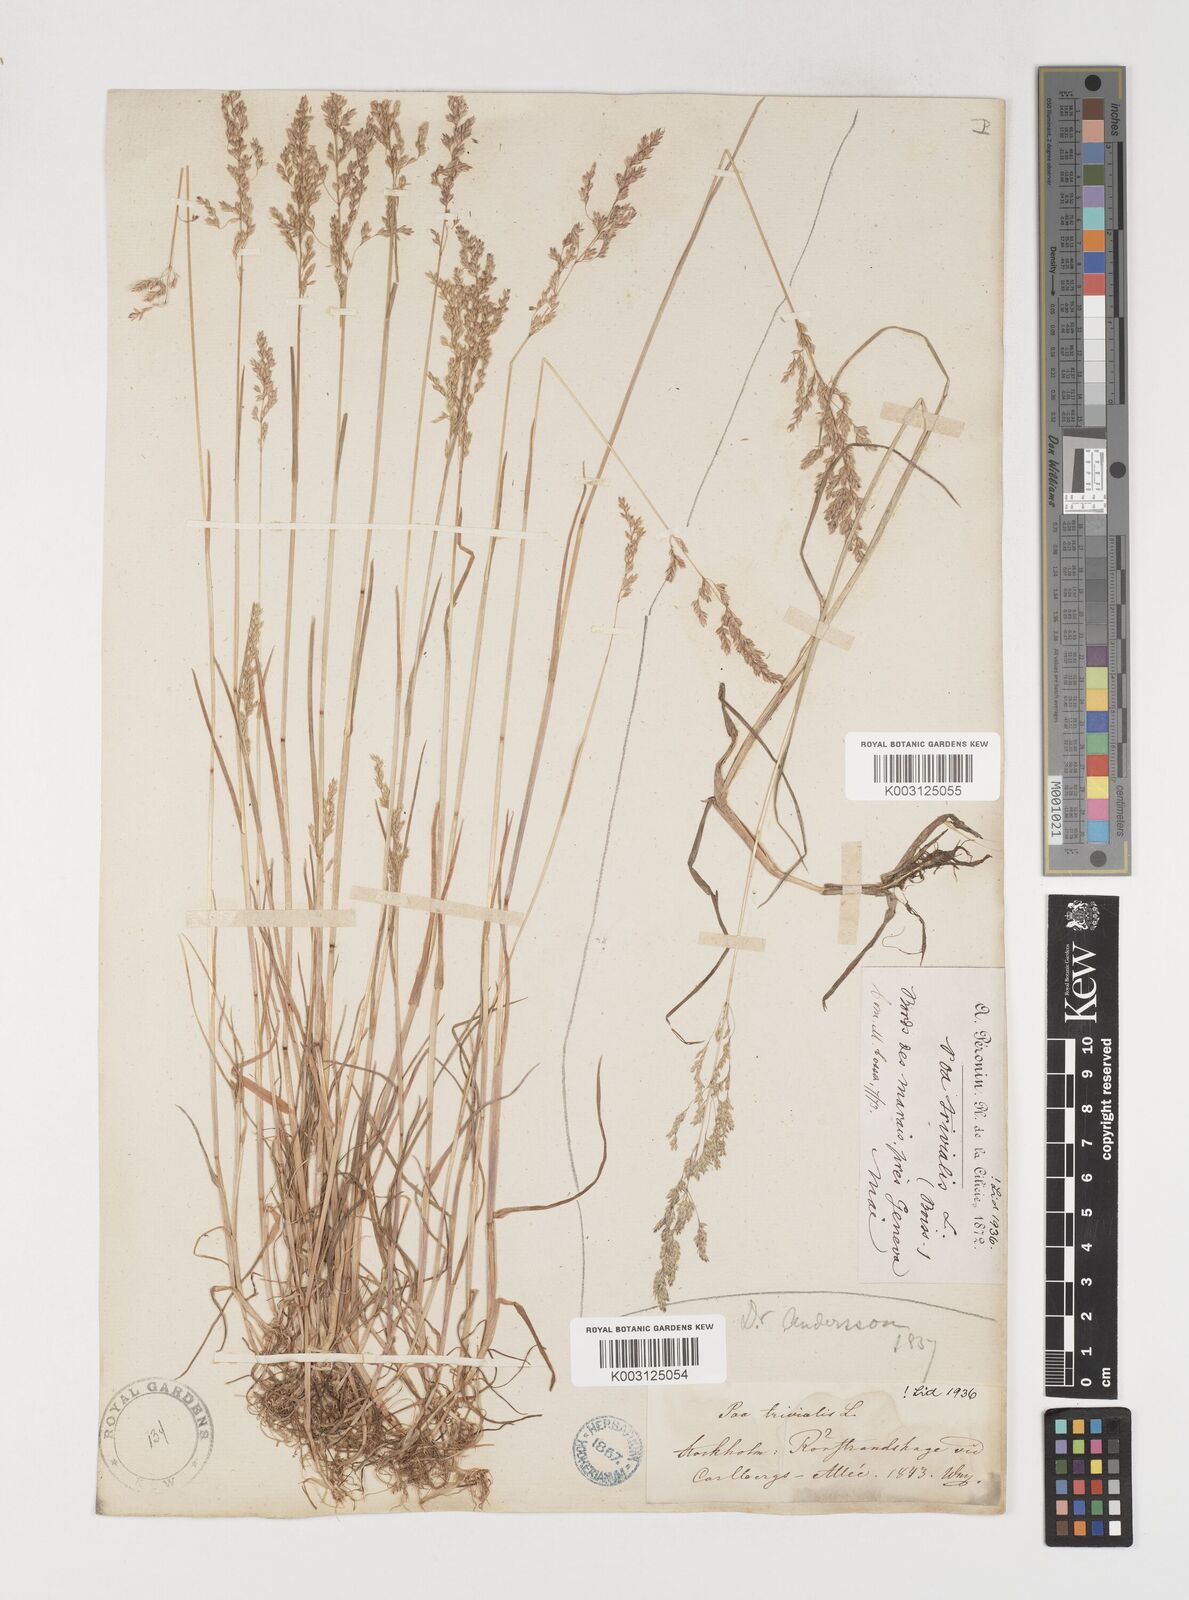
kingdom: Plantae
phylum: Tracheophyta
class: Liliopsida
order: Poales
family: Poaceae
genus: Poa
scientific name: Poa trivialis
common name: Rough bluegrass
